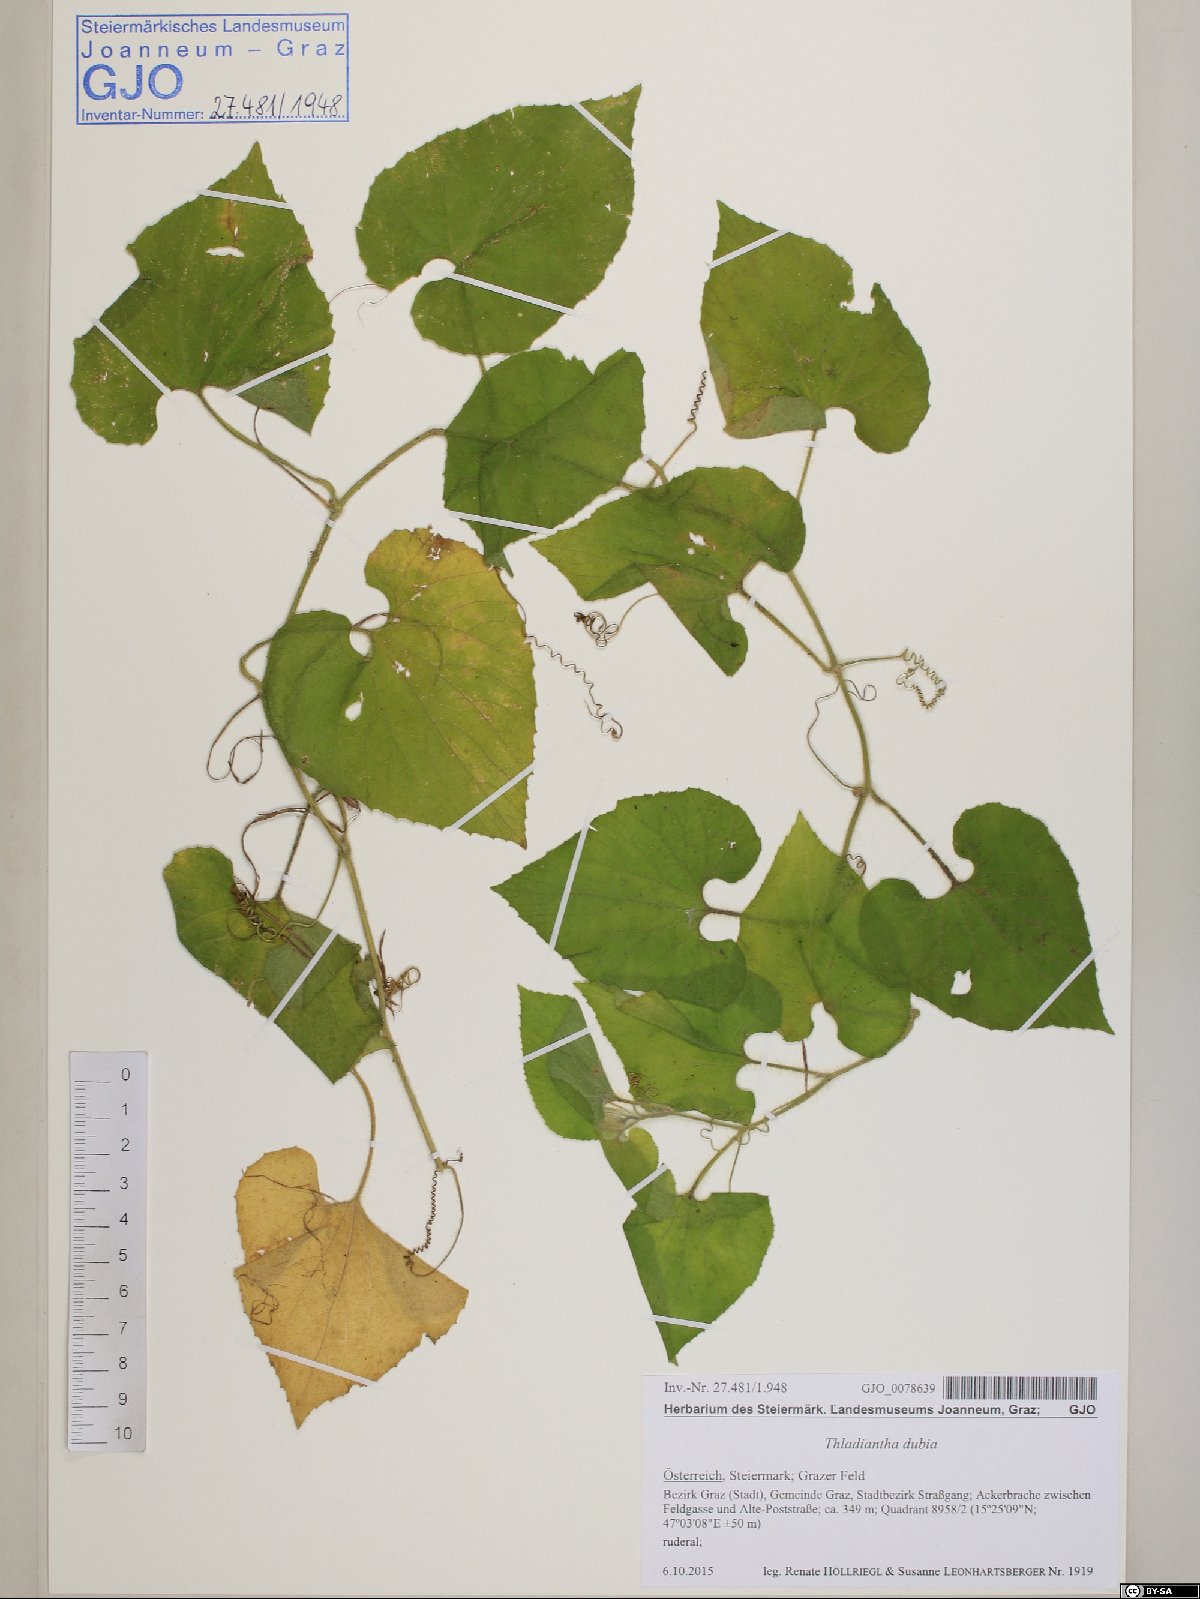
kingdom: Plantae
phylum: Tracheophyta
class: Magnoliopsida
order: Cucurbitales
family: Cucurbitaceae
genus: Thladiantha
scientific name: Thladiantha dubia
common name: Manchu tubergourd
